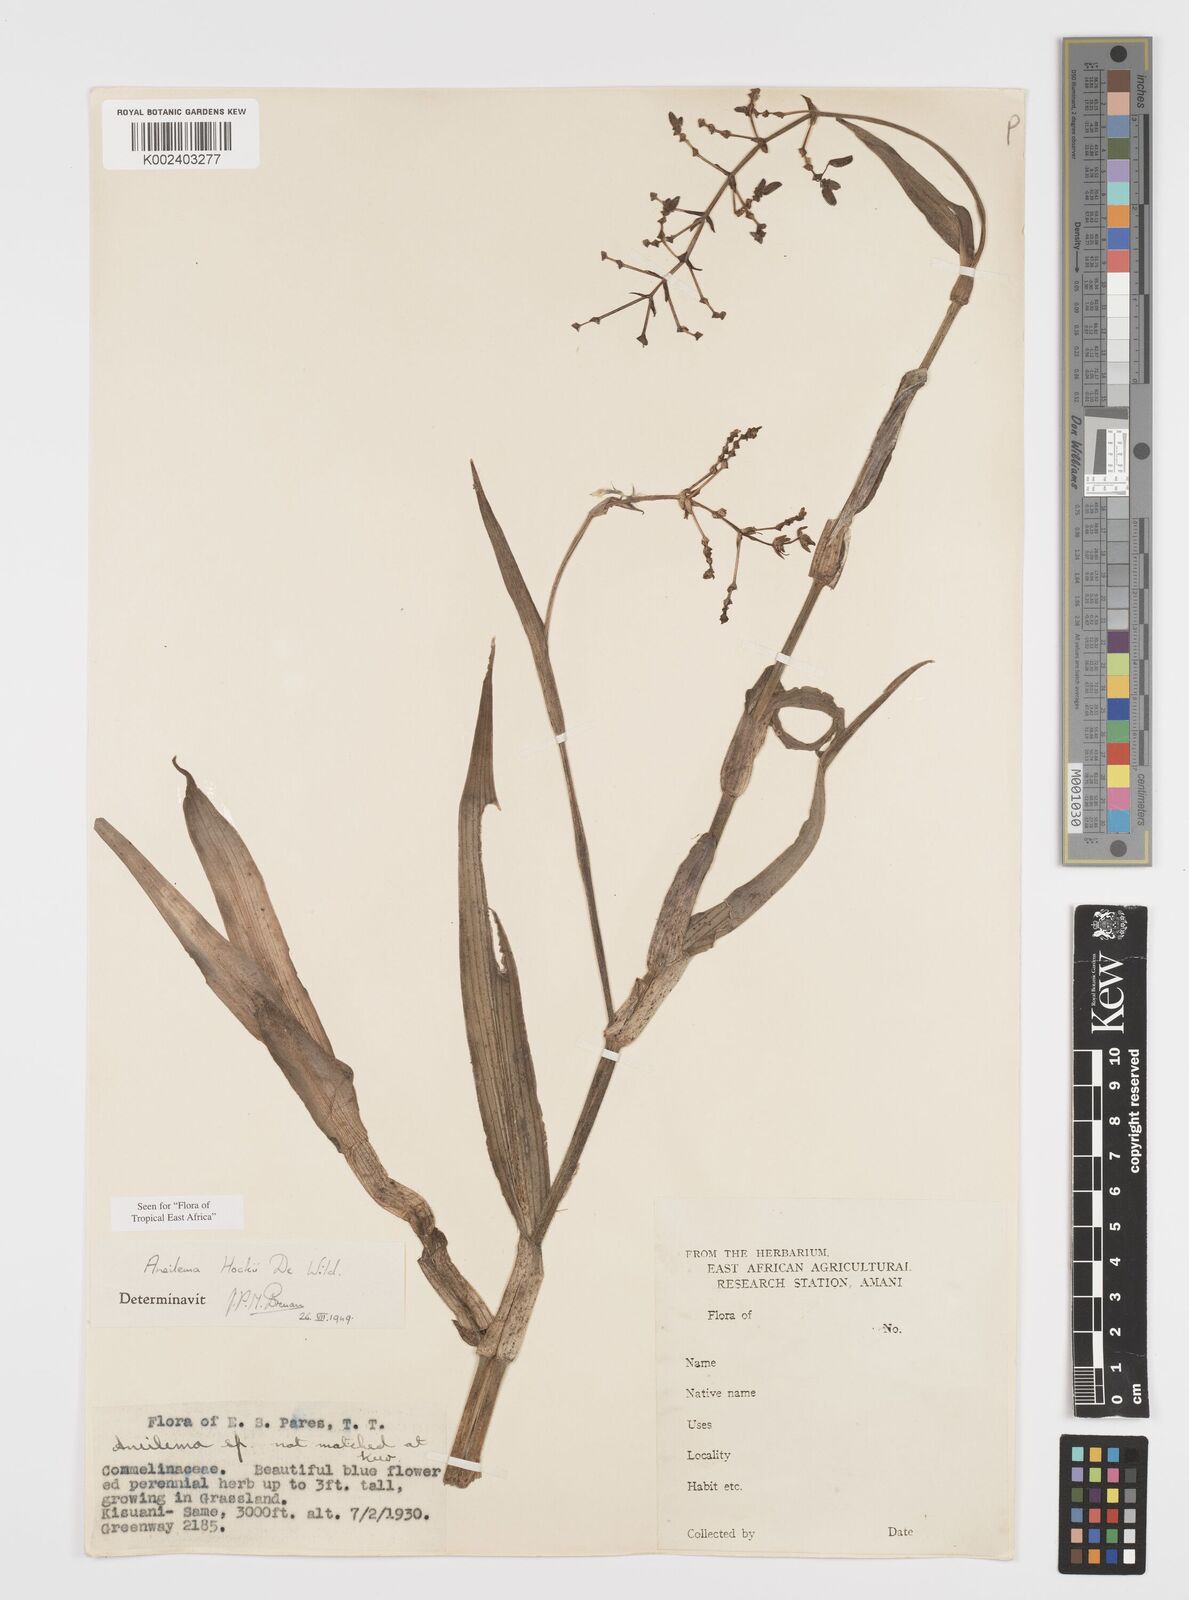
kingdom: Plantae
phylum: Tracheophyta
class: Liliopsida
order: Commelinales
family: Commelinaceae
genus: Aneilema
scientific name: Aneilema hockii
